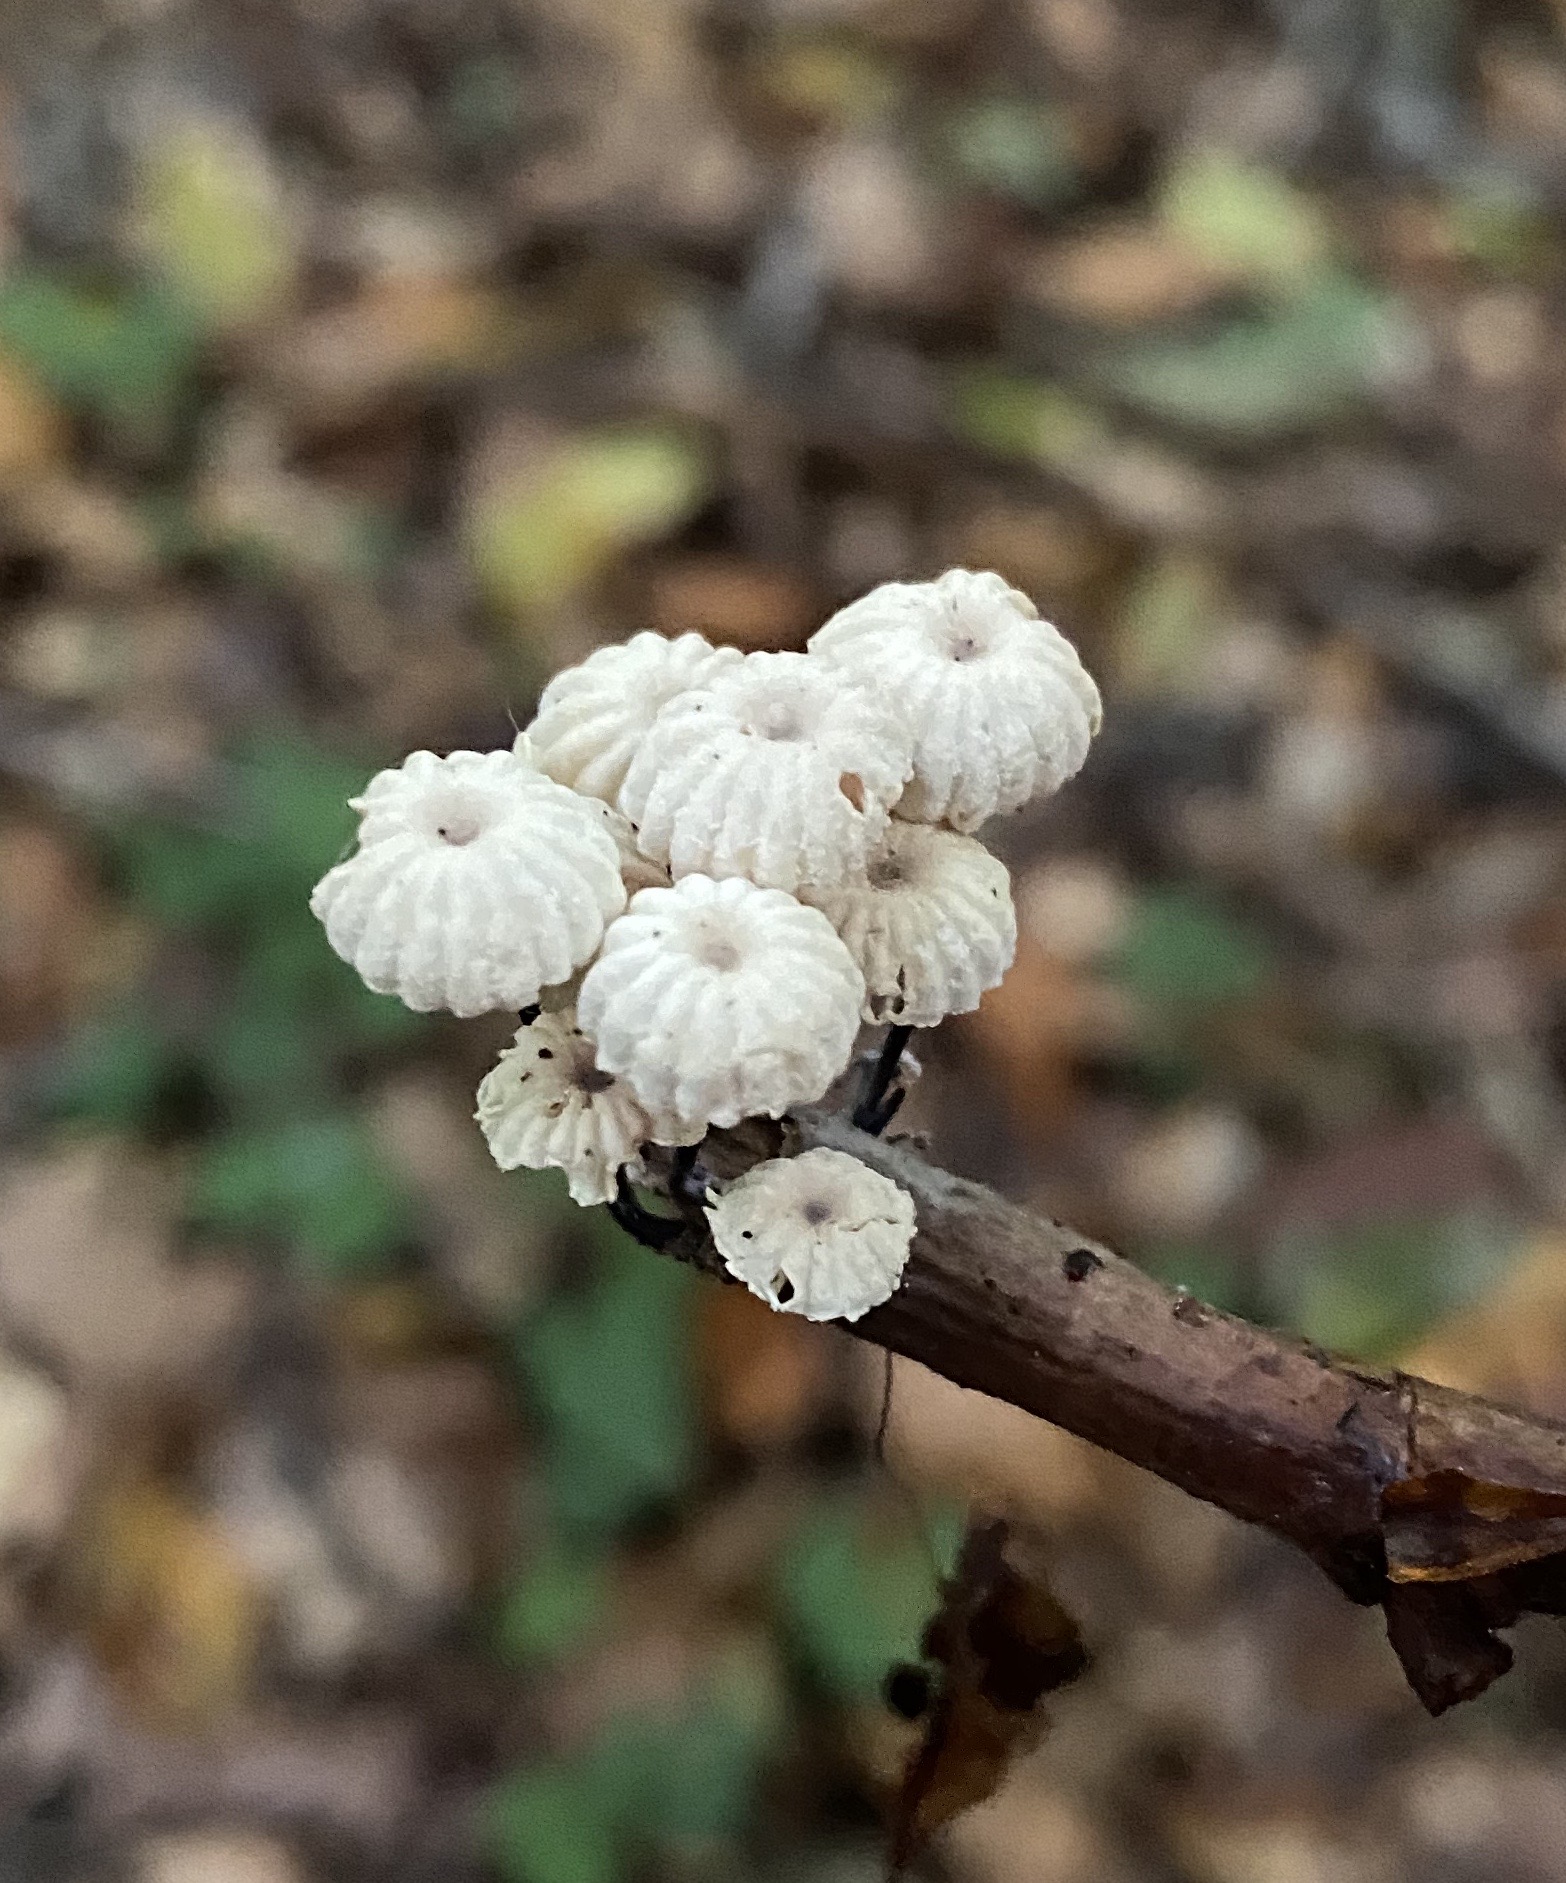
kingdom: Fungi
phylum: Basidiomycota
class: Agaricomycetes
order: Agaricales
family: Marasmiaceae
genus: Marasmius
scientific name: Marasmius rotula
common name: hjul-bruskhat
